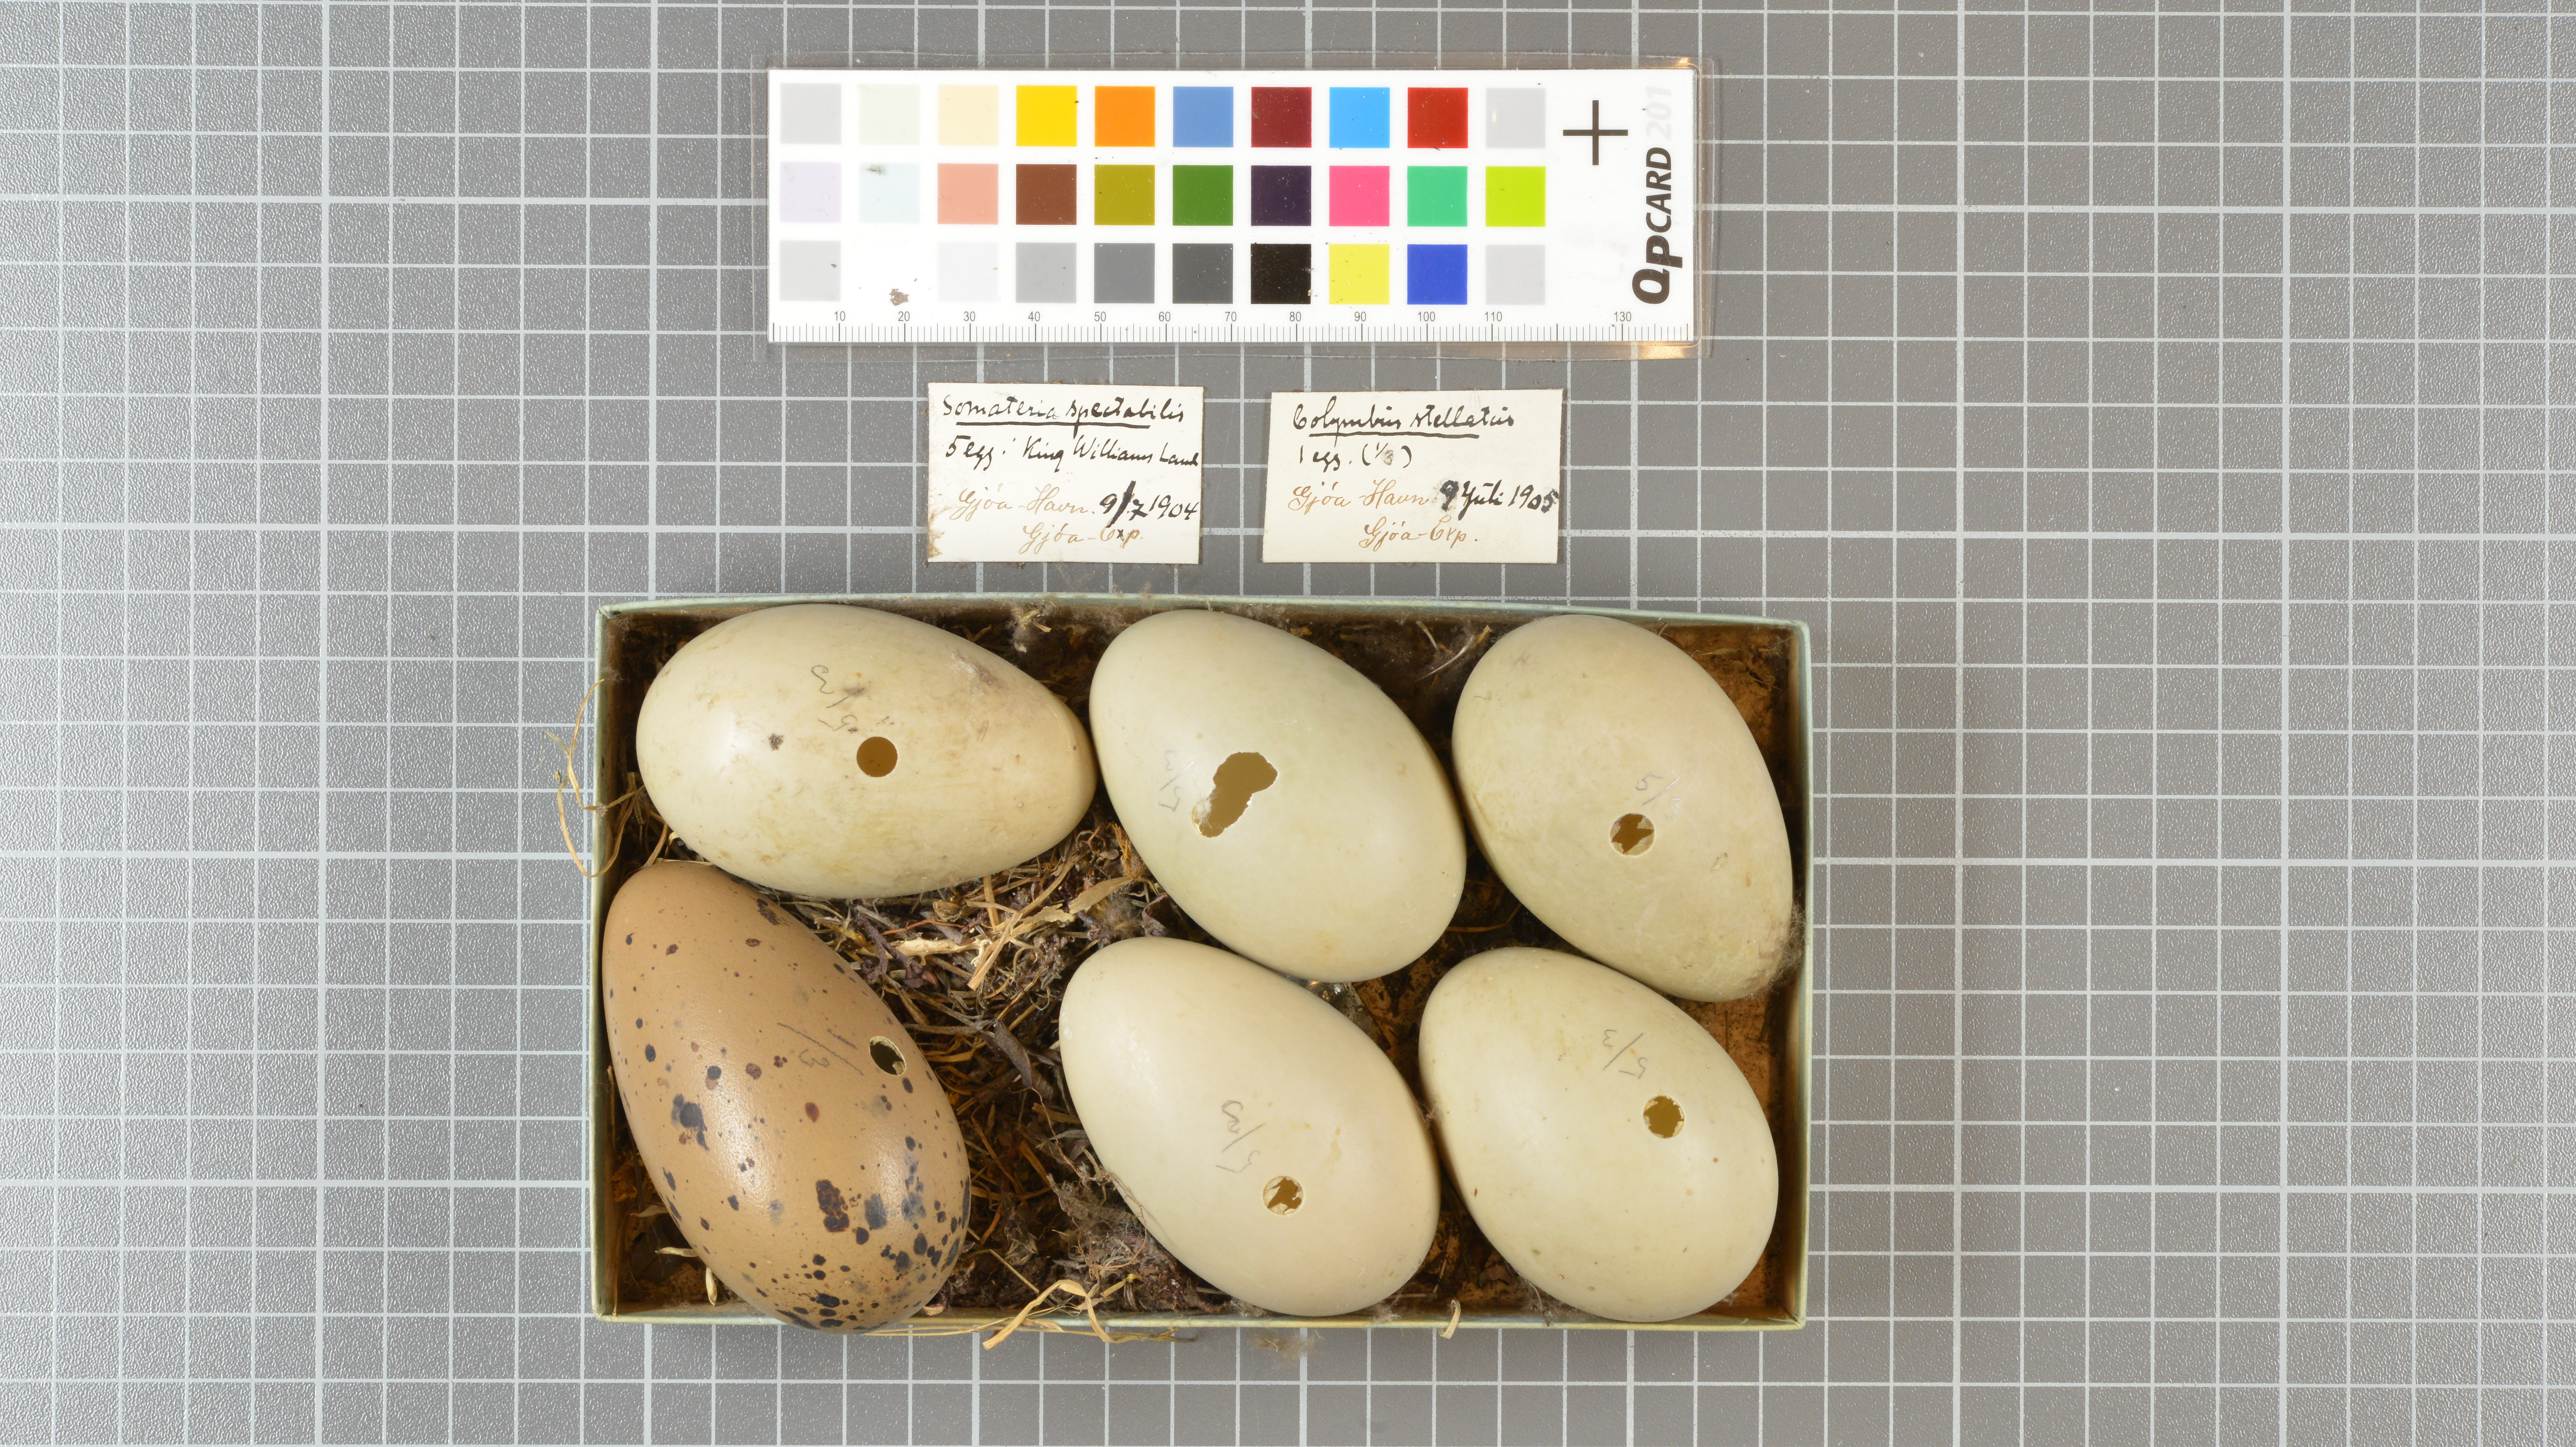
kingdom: Animalia
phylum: Chordata
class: Aves
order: Anseriformes
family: Anatidae
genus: Somateria
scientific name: Somateria spectabilis
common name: King eider
